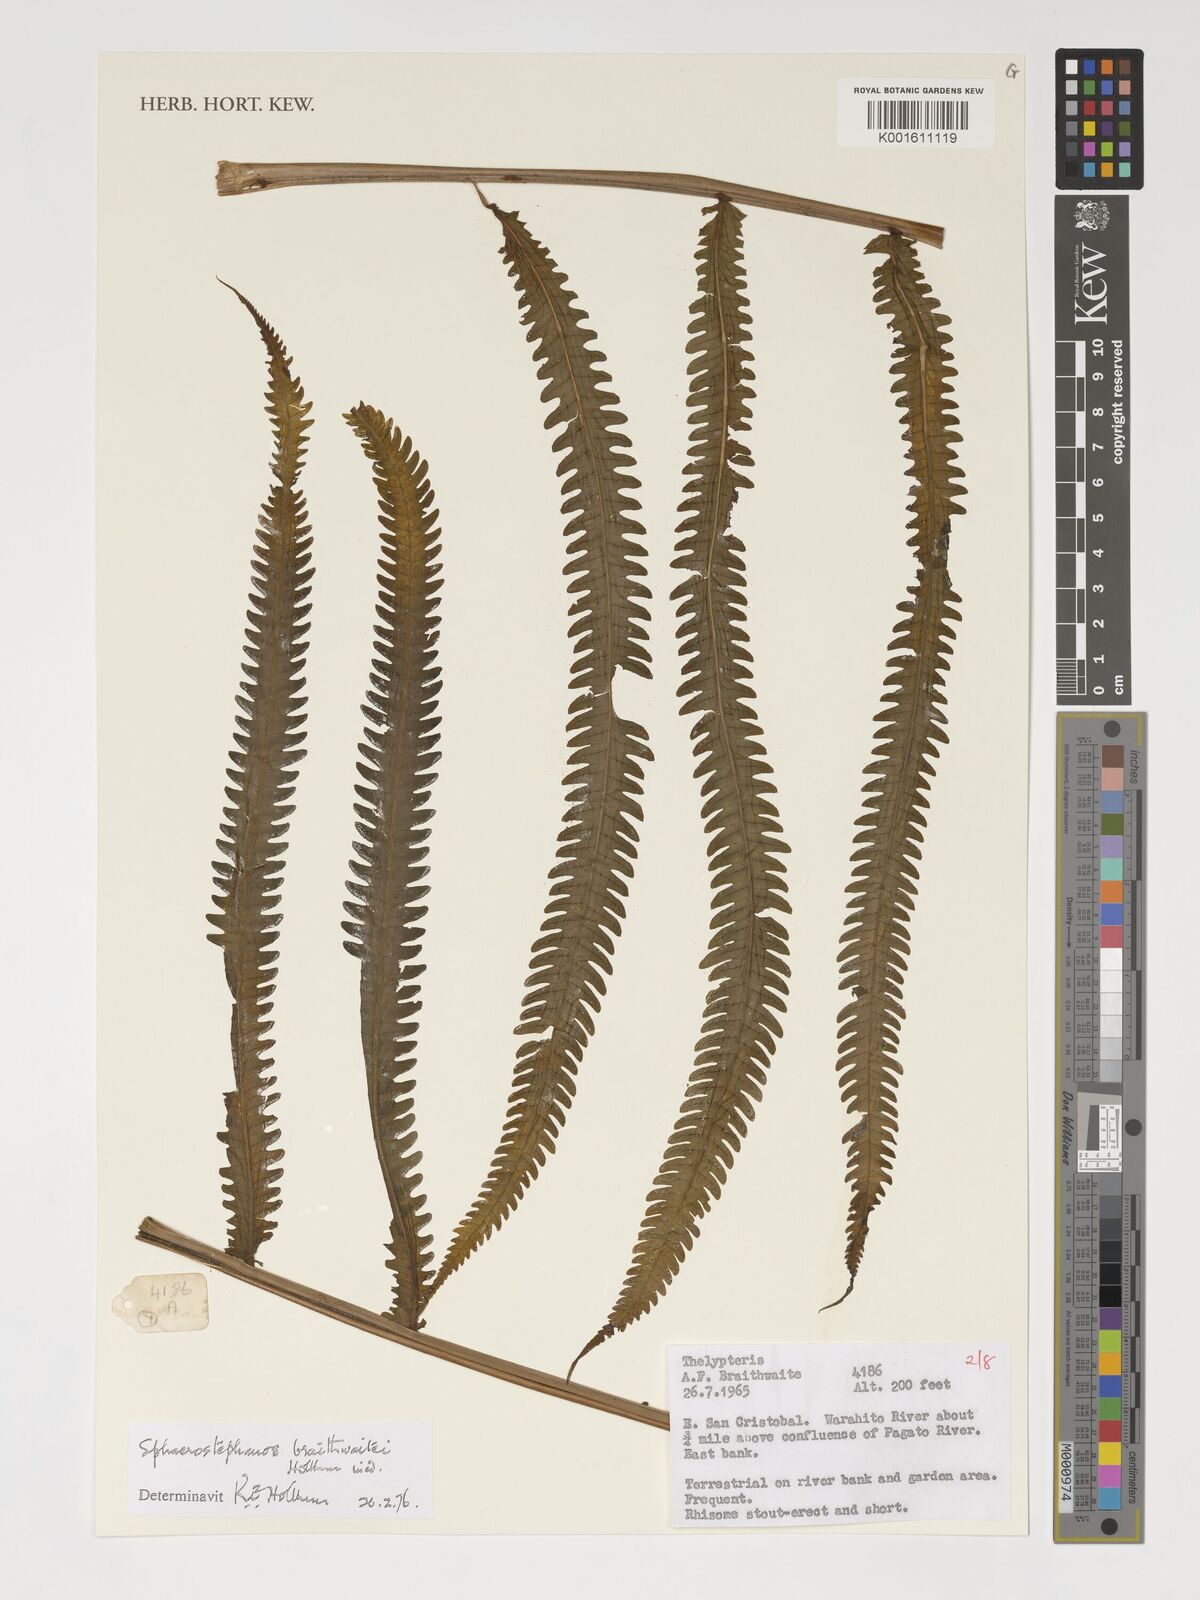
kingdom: Plantae
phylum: Tracheophyta
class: Polypodiopsida
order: Polypodiales
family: Thelypteridaceae
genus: Sphaerostephanos
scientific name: Sphaerostephanos braithwaitei
